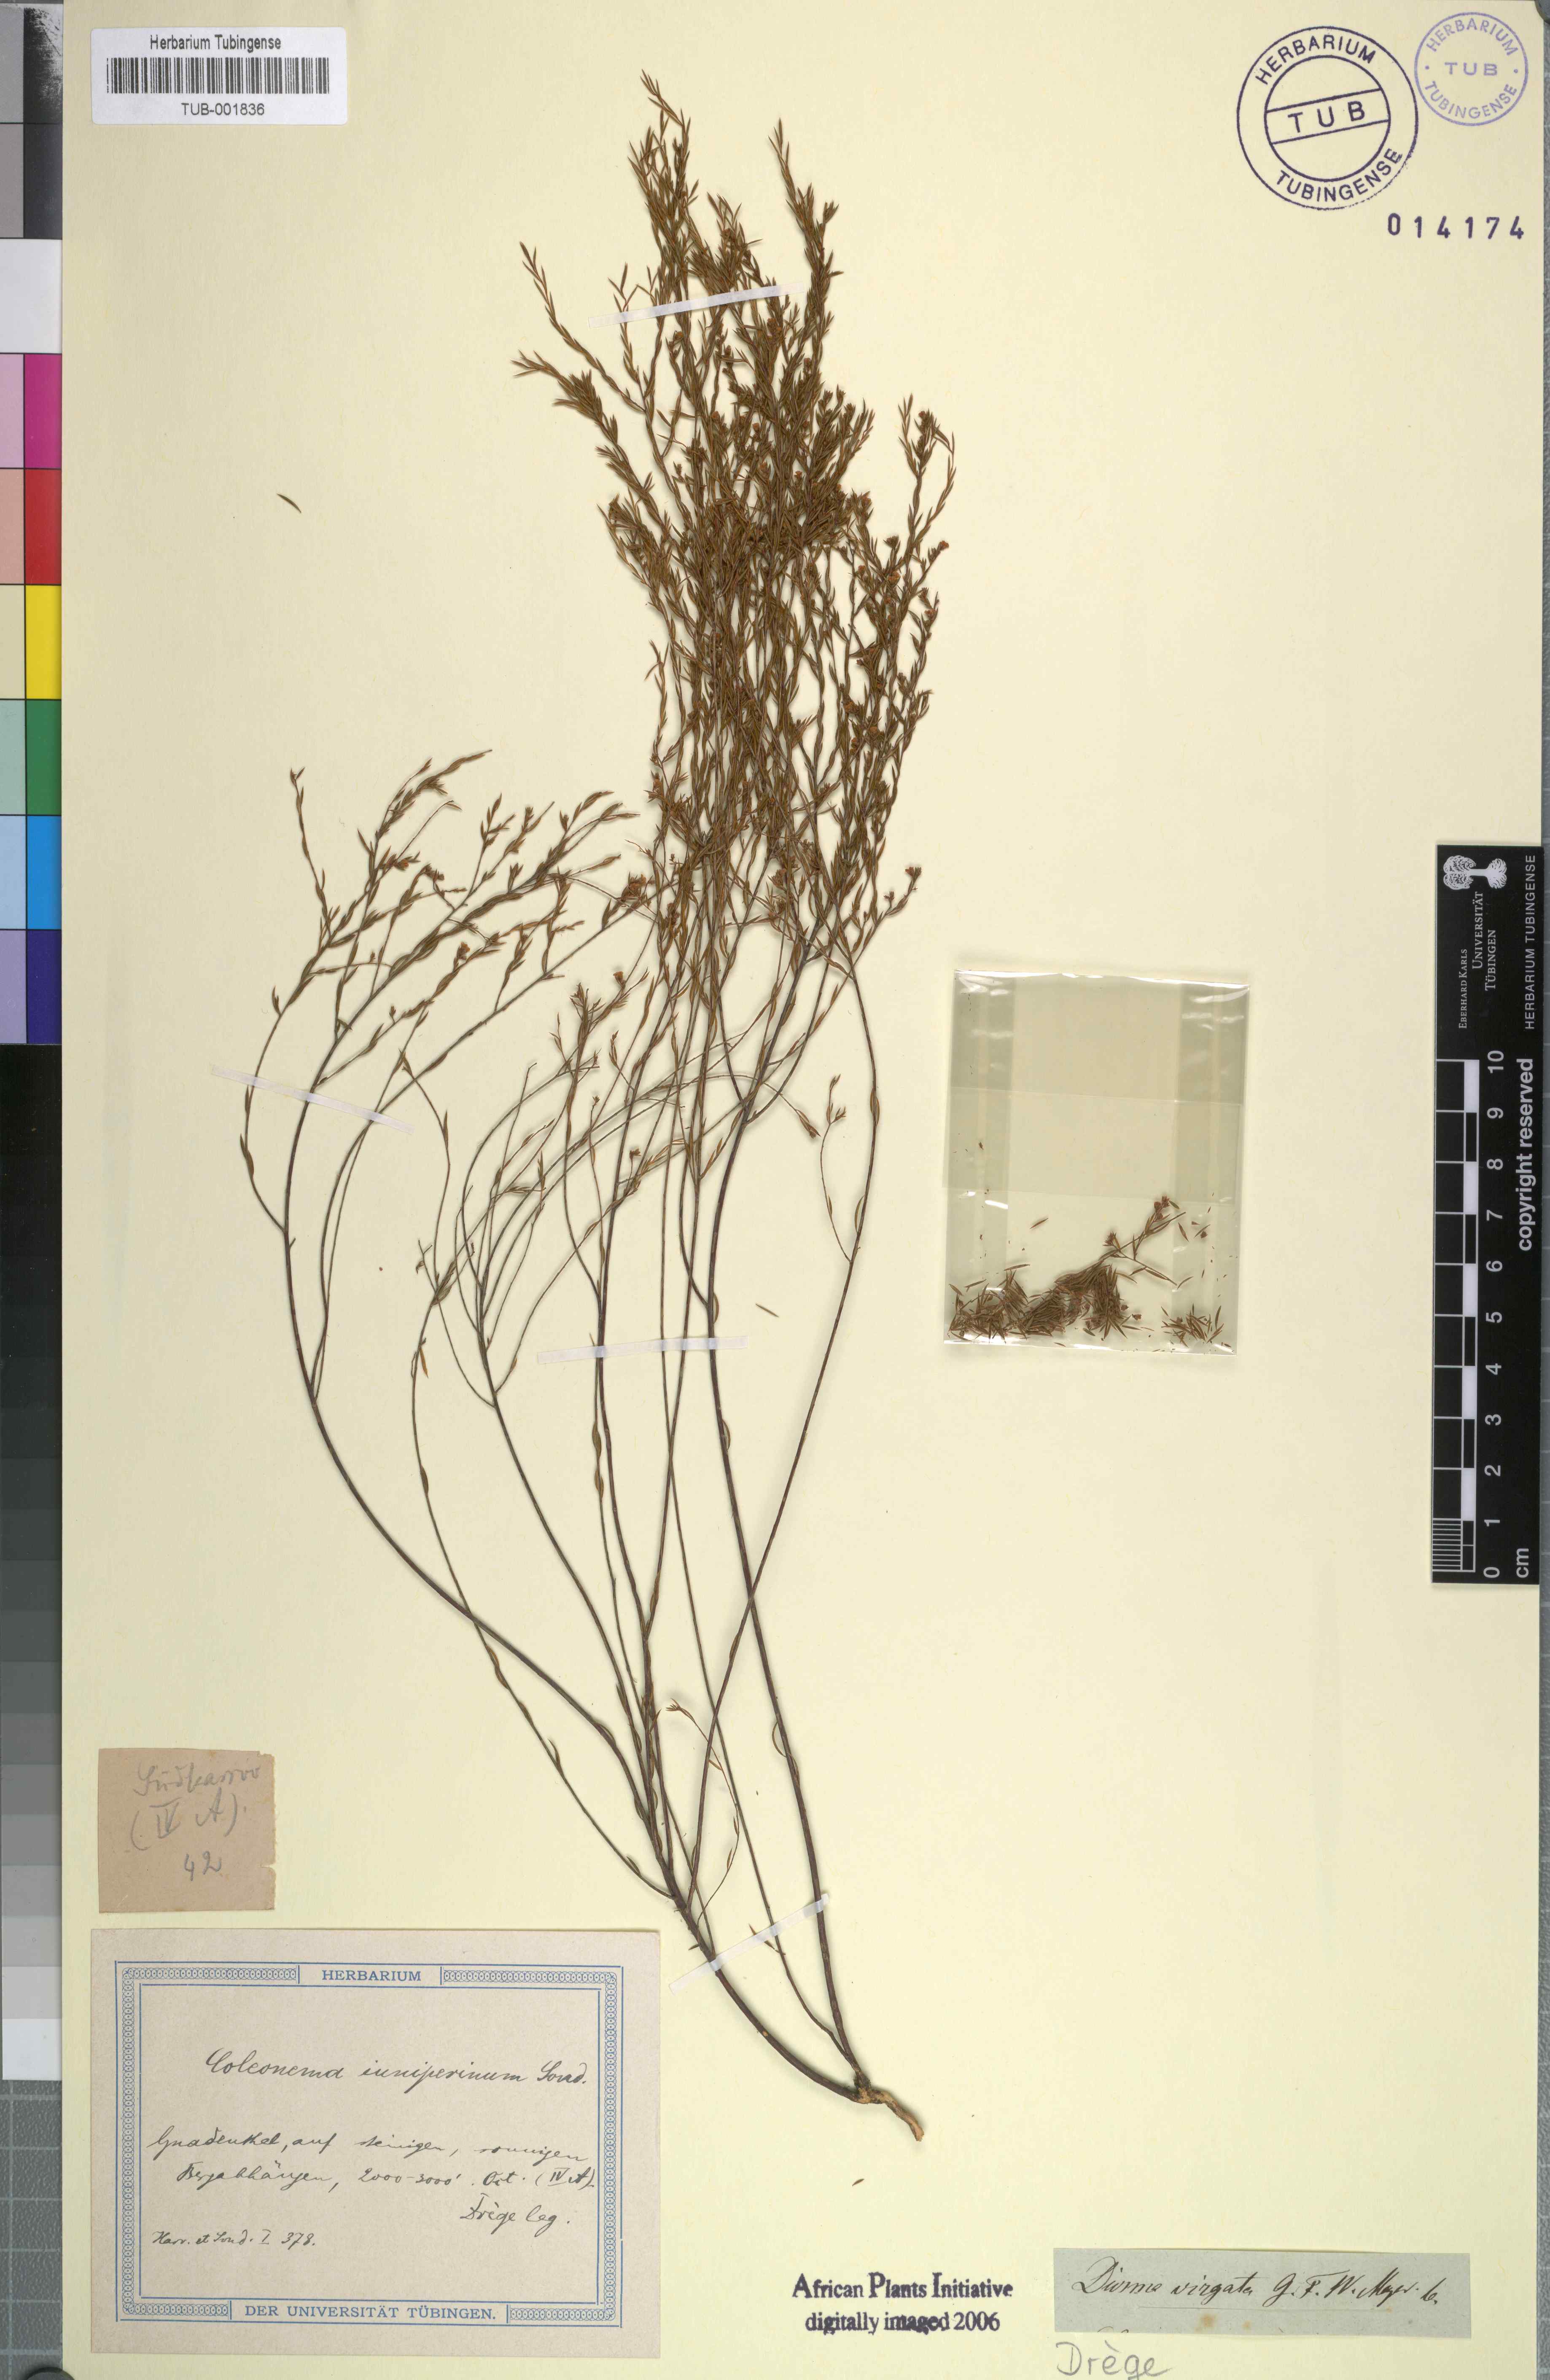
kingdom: Plantae
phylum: Tracheophyta
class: Magnoliopsida
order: Sapindales
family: Rutaceae
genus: Coleonema
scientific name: Coleonema juniperinum
